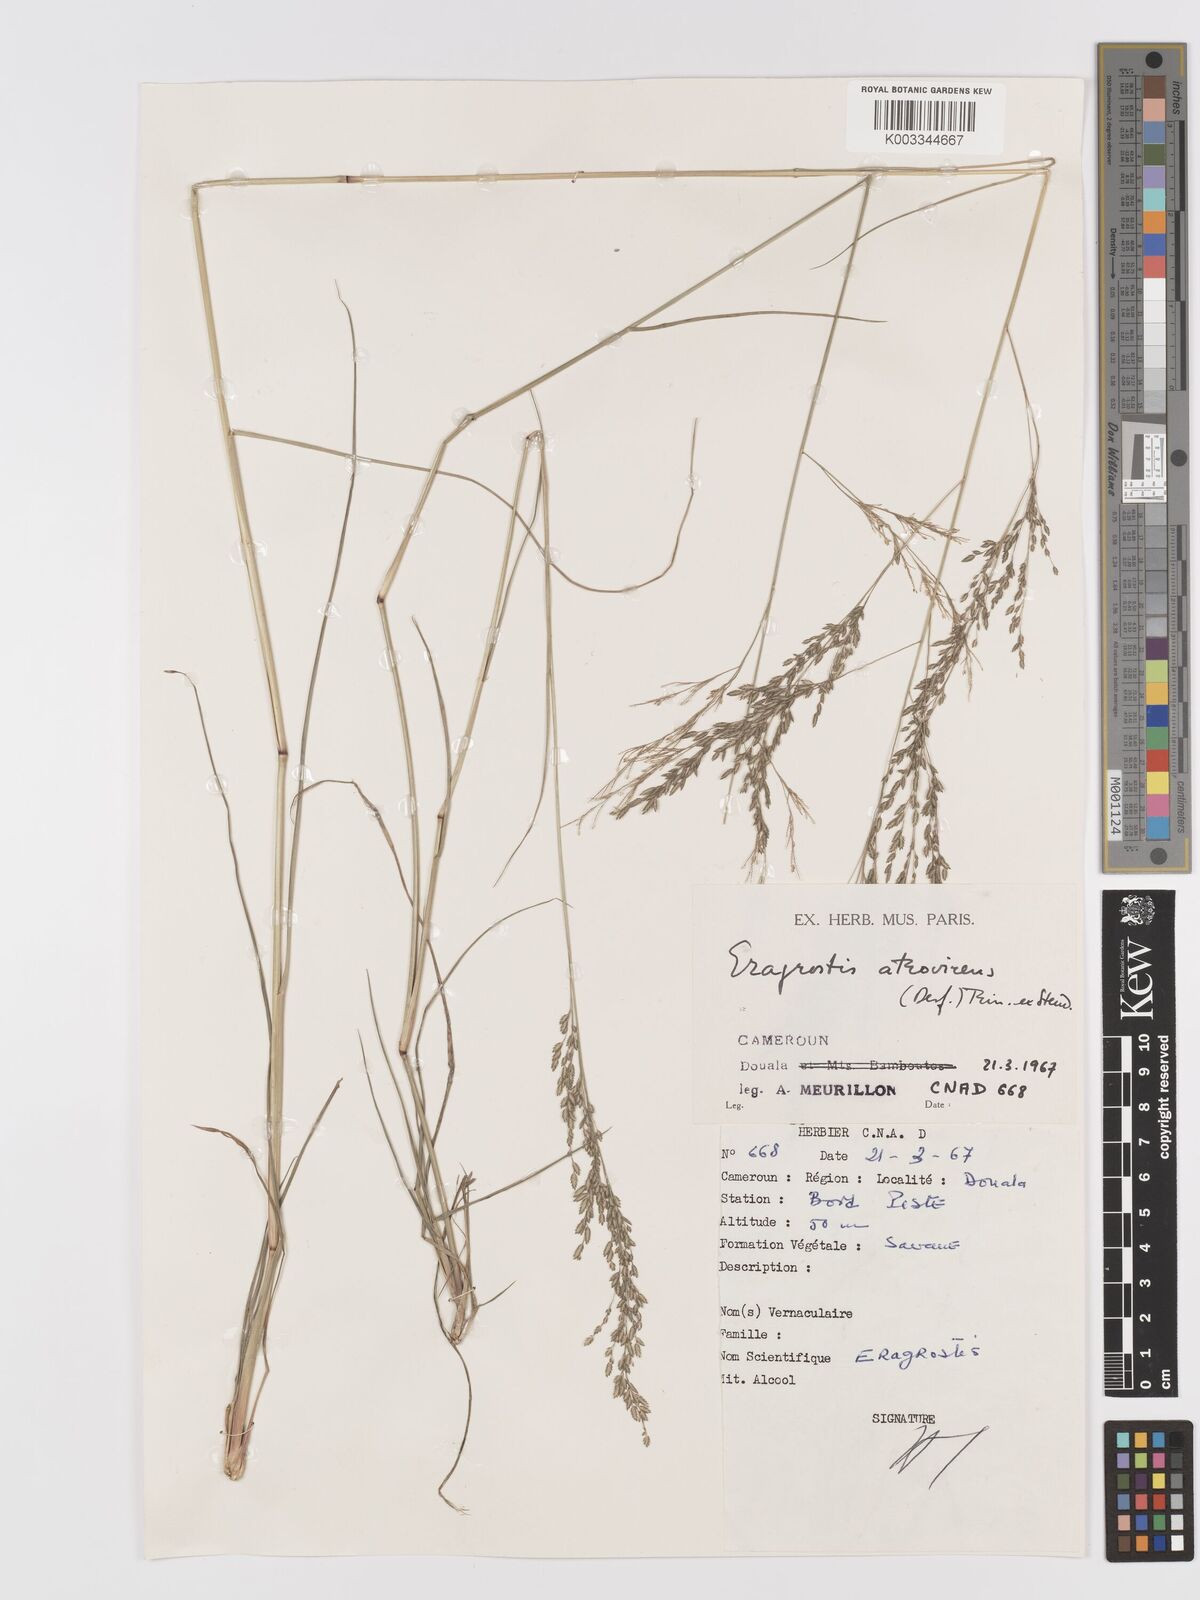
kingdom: Plantae
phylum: Tracheophyta
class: Liliopsida
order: Poales
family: Poaceae
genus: Eragrostis
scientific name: Eragrostis atrovirens
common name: Thalia lovegrass
